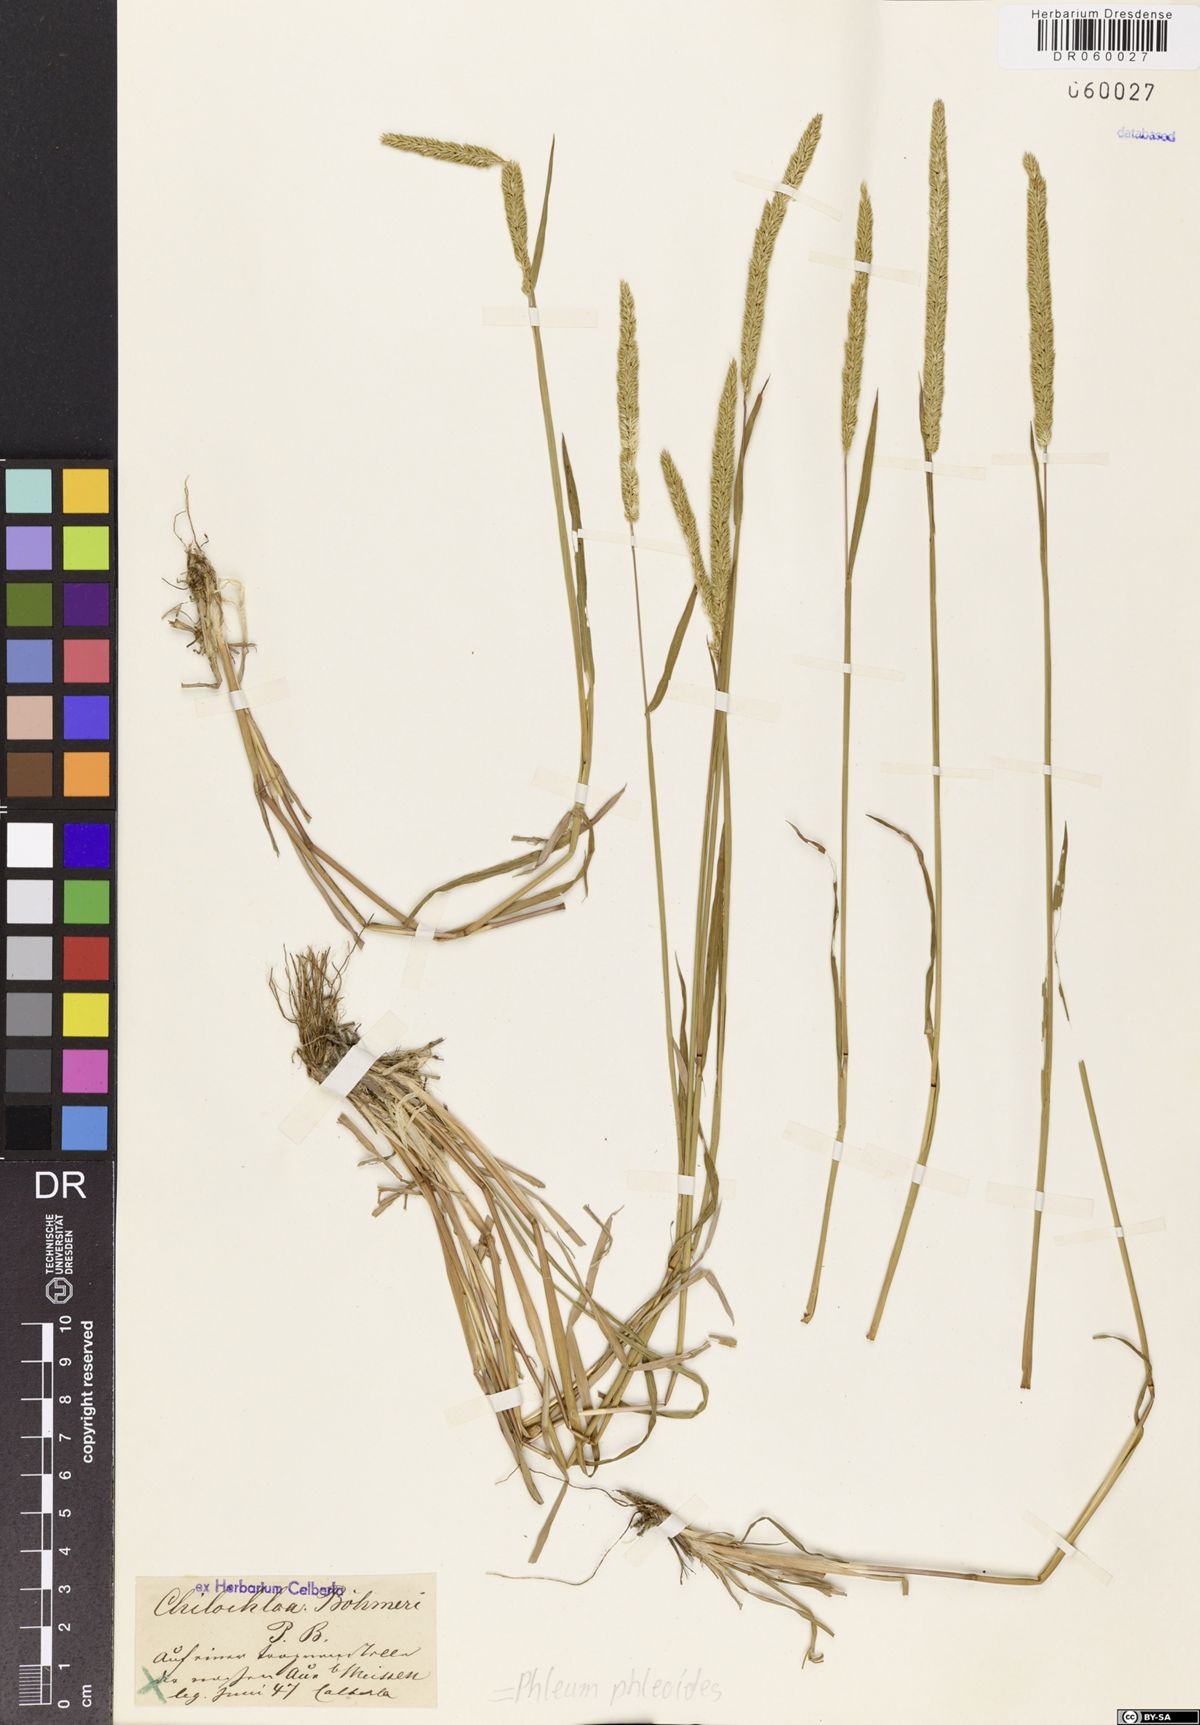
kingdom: Plantae
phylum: Tracheophyta
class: Liliopsida
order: Poales
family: Poaceae
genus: Phleum
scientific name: Phleum phleoides
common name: Purple-stem cat's-tail
